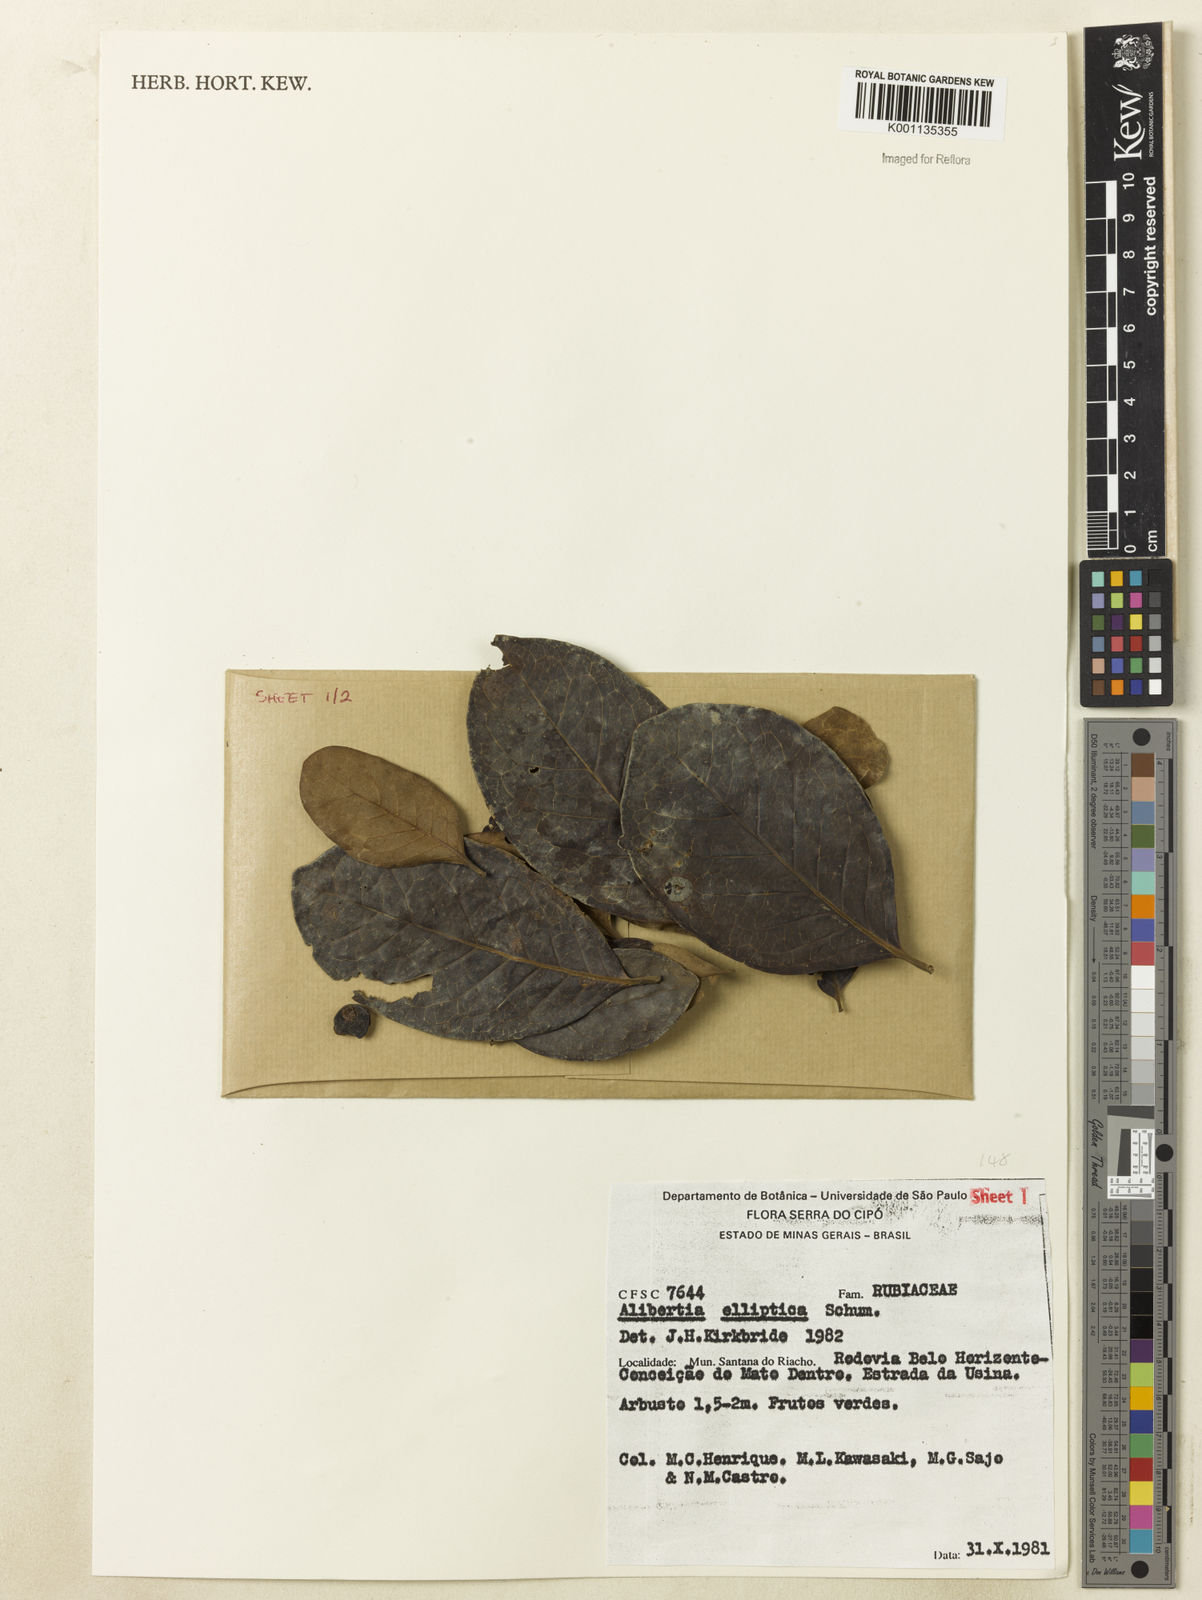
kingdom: Plantae
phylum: Tracheophyta
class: Magnoliopsida
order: Gentianales
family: Rubiaceae
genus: Cordiera
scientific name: Cordiera elliptica
